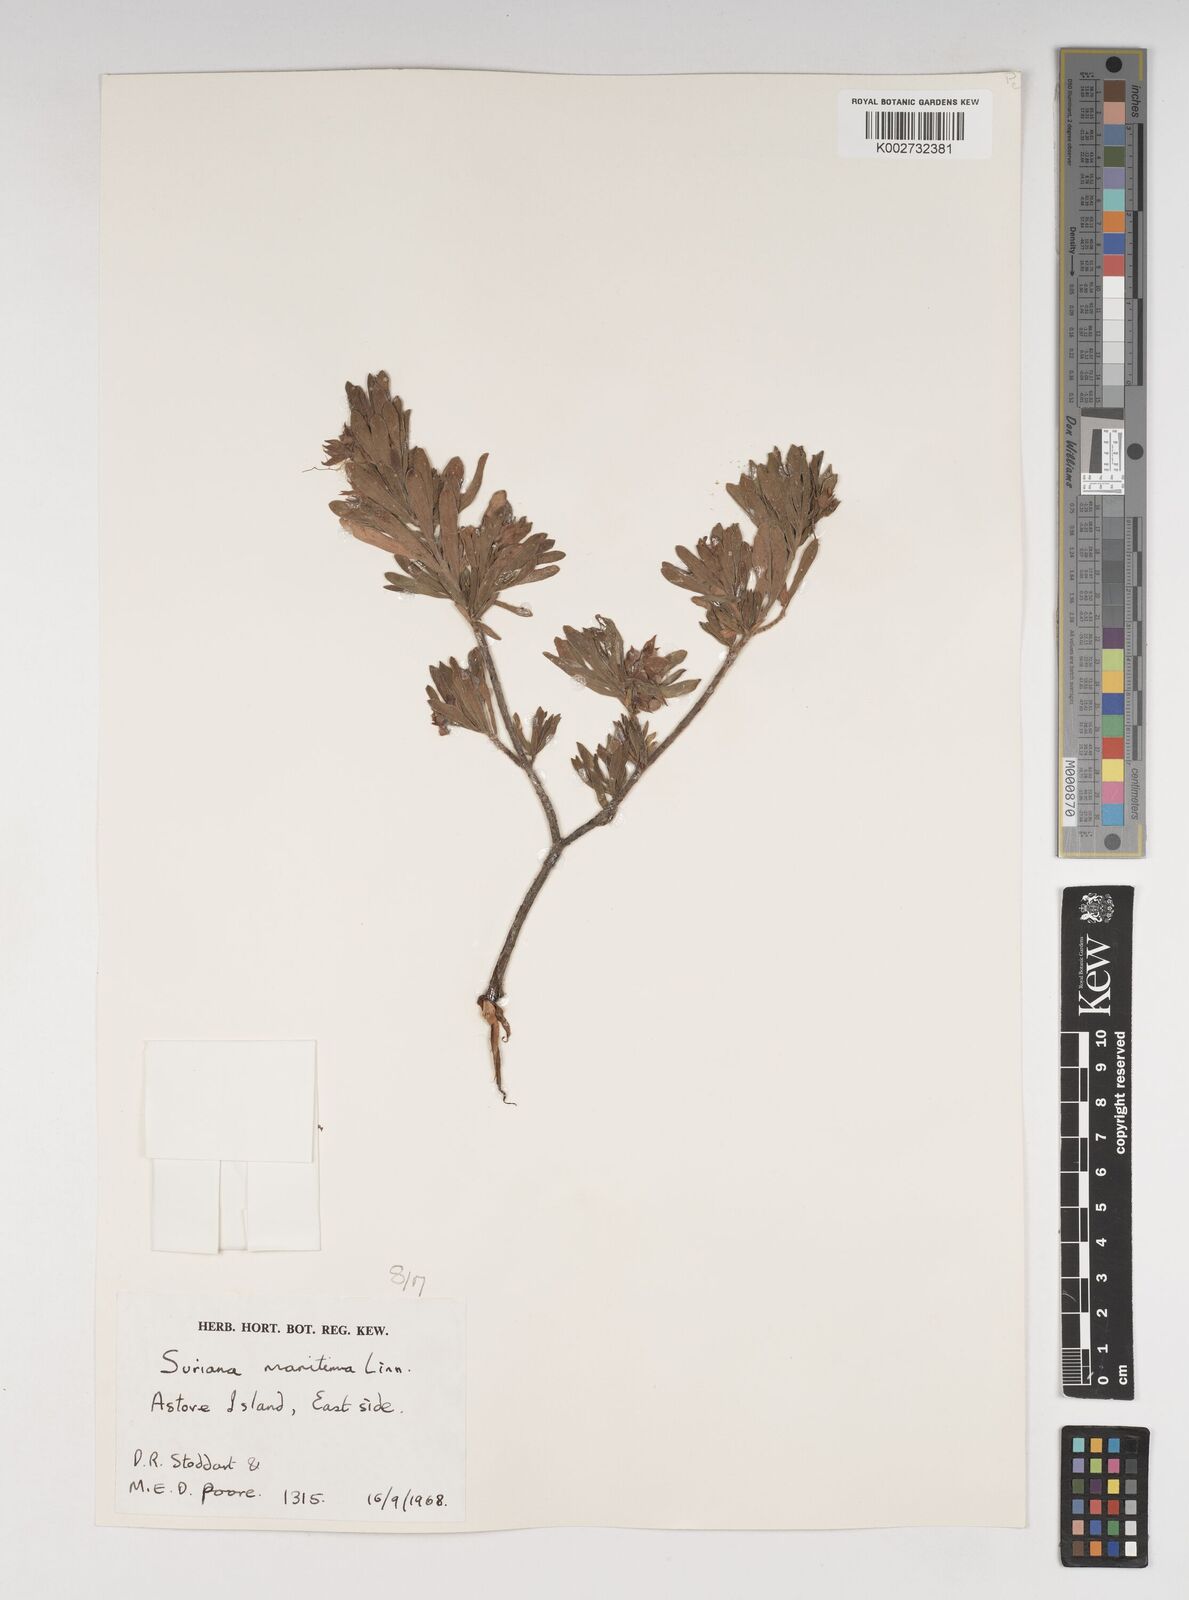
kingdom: Plantae
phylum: Tracheophyta
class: Magnoliopsida
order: Fabales
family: Surianaceae
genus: Suriana
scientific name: Suriana maritima
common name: Bay-cedar
